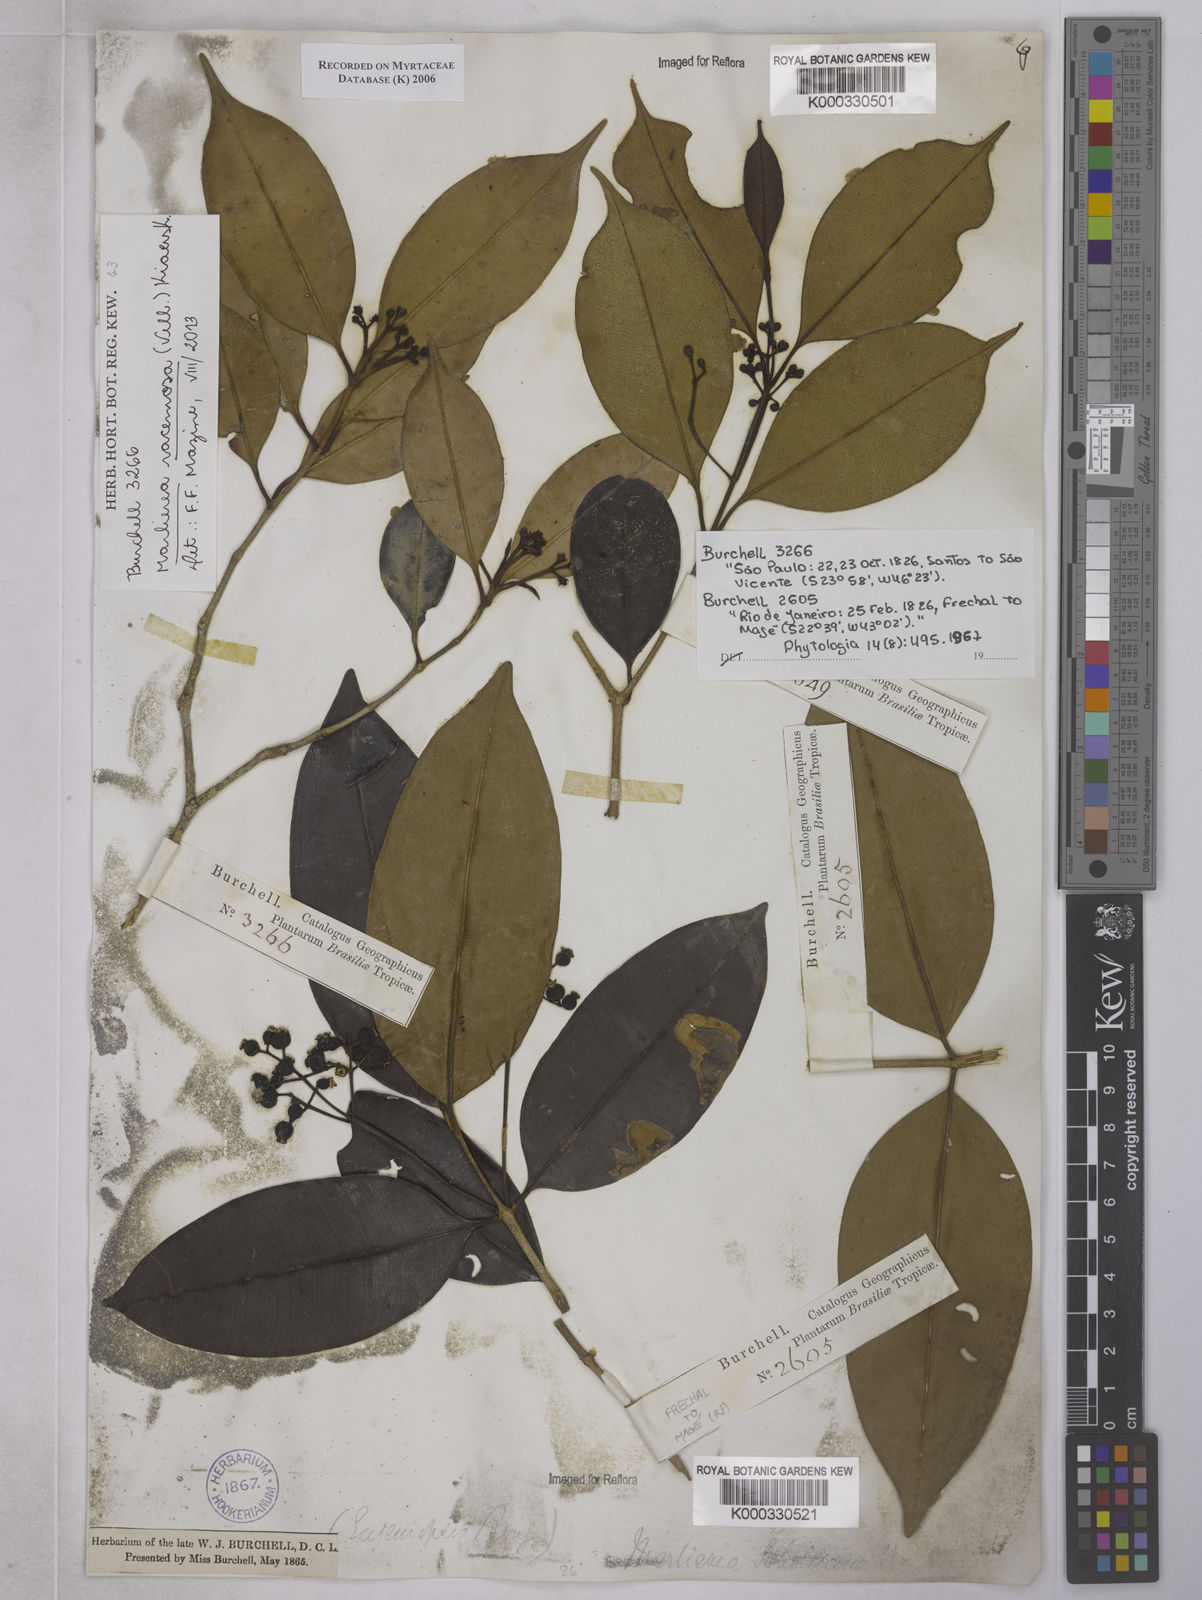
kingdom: Plantae
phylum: Tracheophyta
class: Magnoliopsida
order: Myrtales
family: Myrtaceae
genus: Myrcia
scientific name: Myrcia vellozoi
